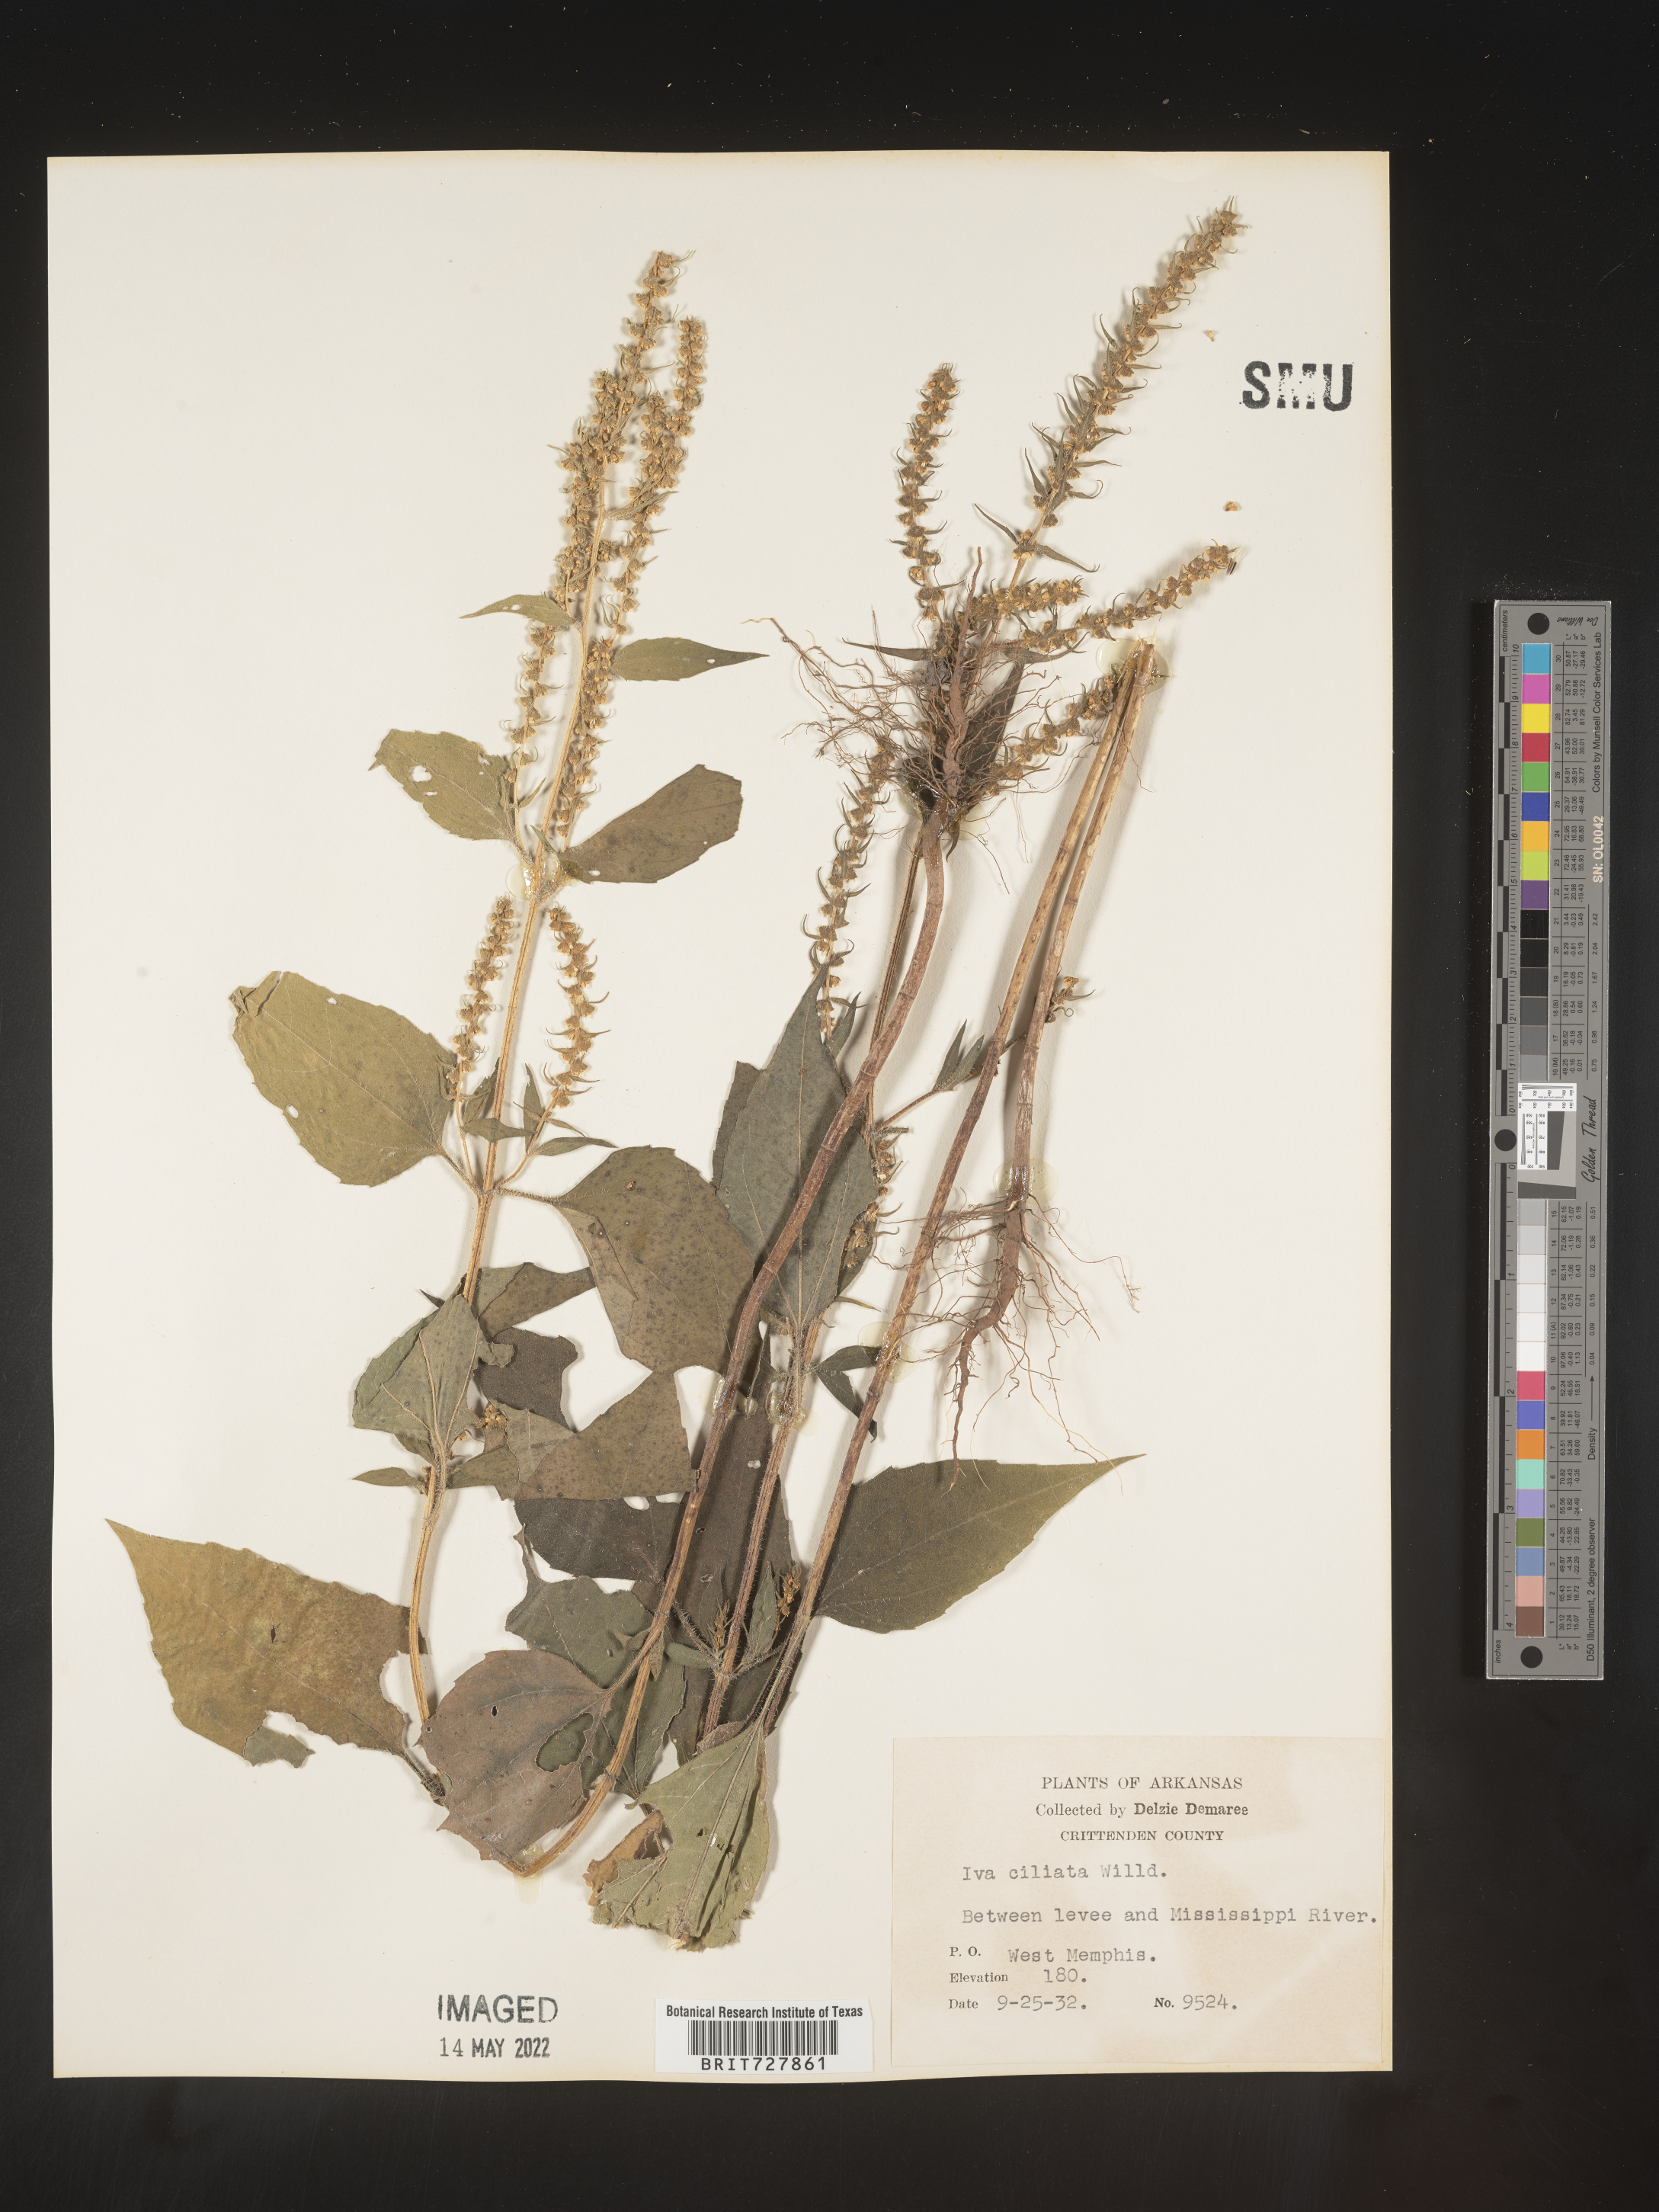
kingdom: Plantae
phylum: Tracheophyta
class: Magnoliopsida
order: Asterales
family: Asteraceae
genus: Iva
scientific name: Iva annua
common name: Marsh-elder
